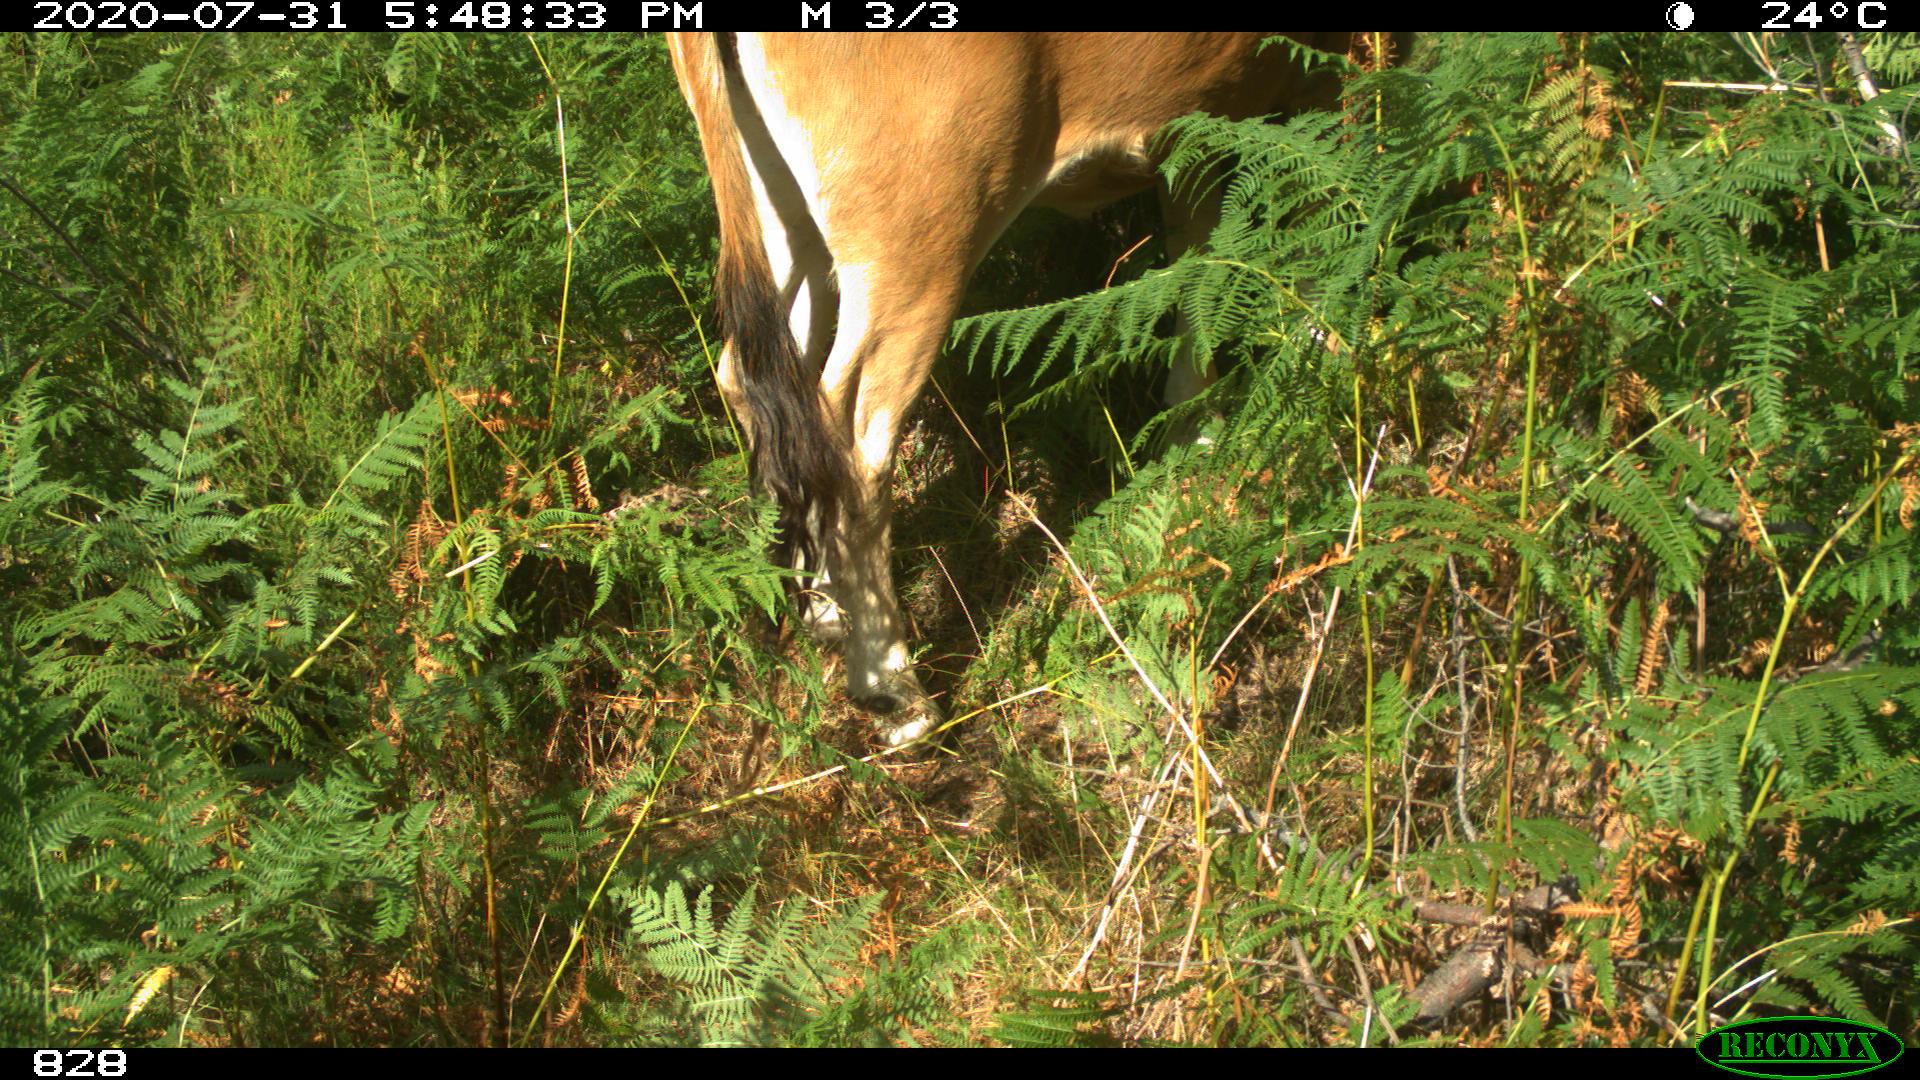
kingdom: Animalia
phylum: Chordata
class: Mammalia
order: Artiodactyla
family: Bovidae
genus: Bos
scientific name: Bos taurus
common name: Domesticated cattle
